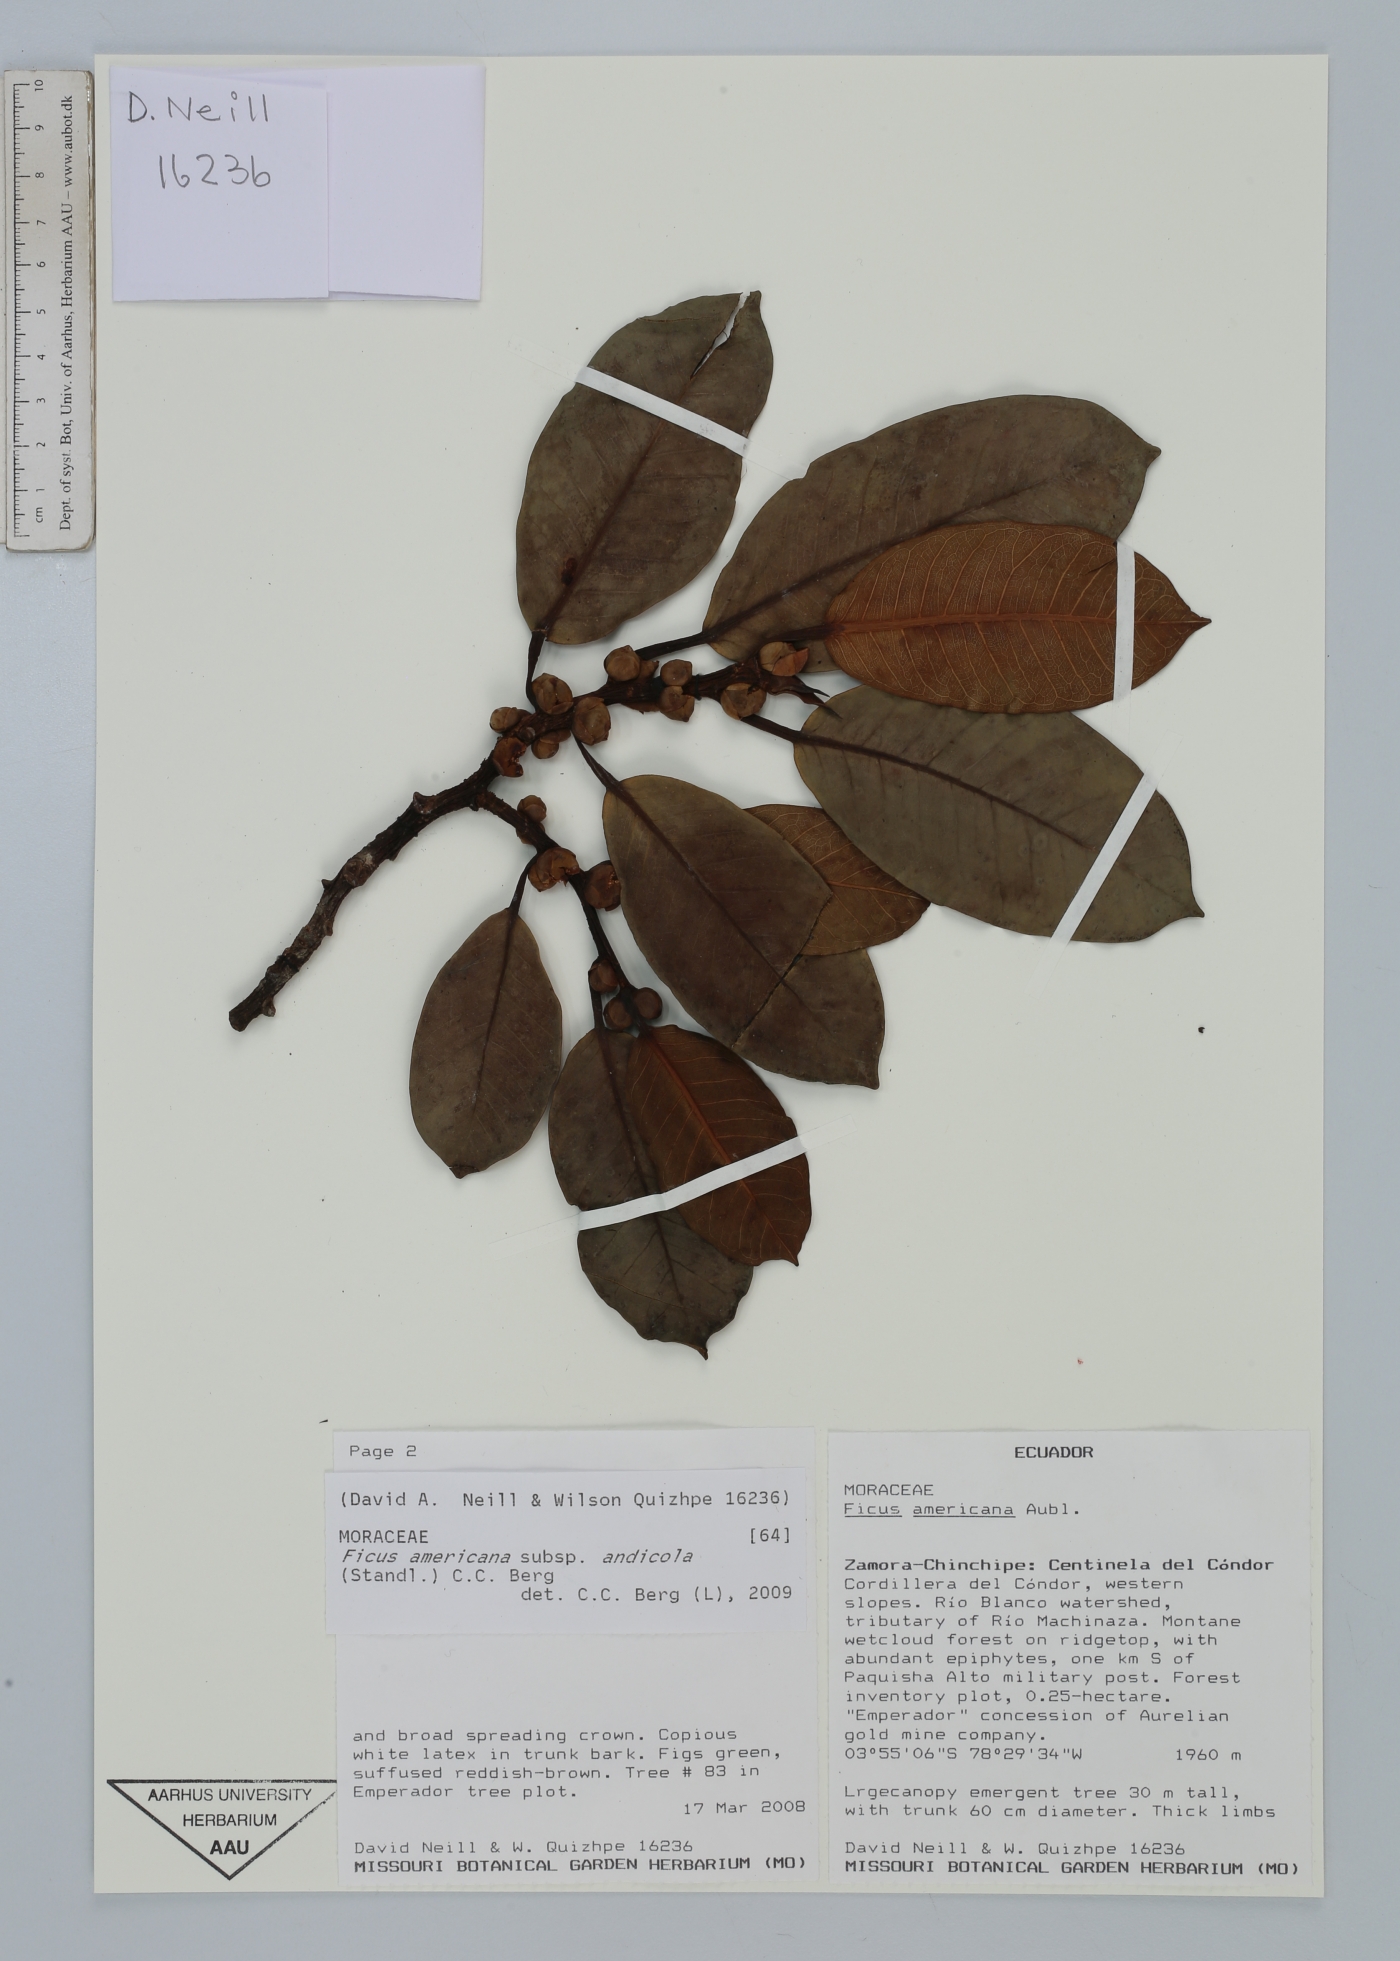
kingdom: Plantae
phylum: Tracheophyta
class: Magnoliopsida
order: Rosales
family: Moraceae
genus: Ficus
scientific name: Ficus americana
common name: Jamaican cherry fig
